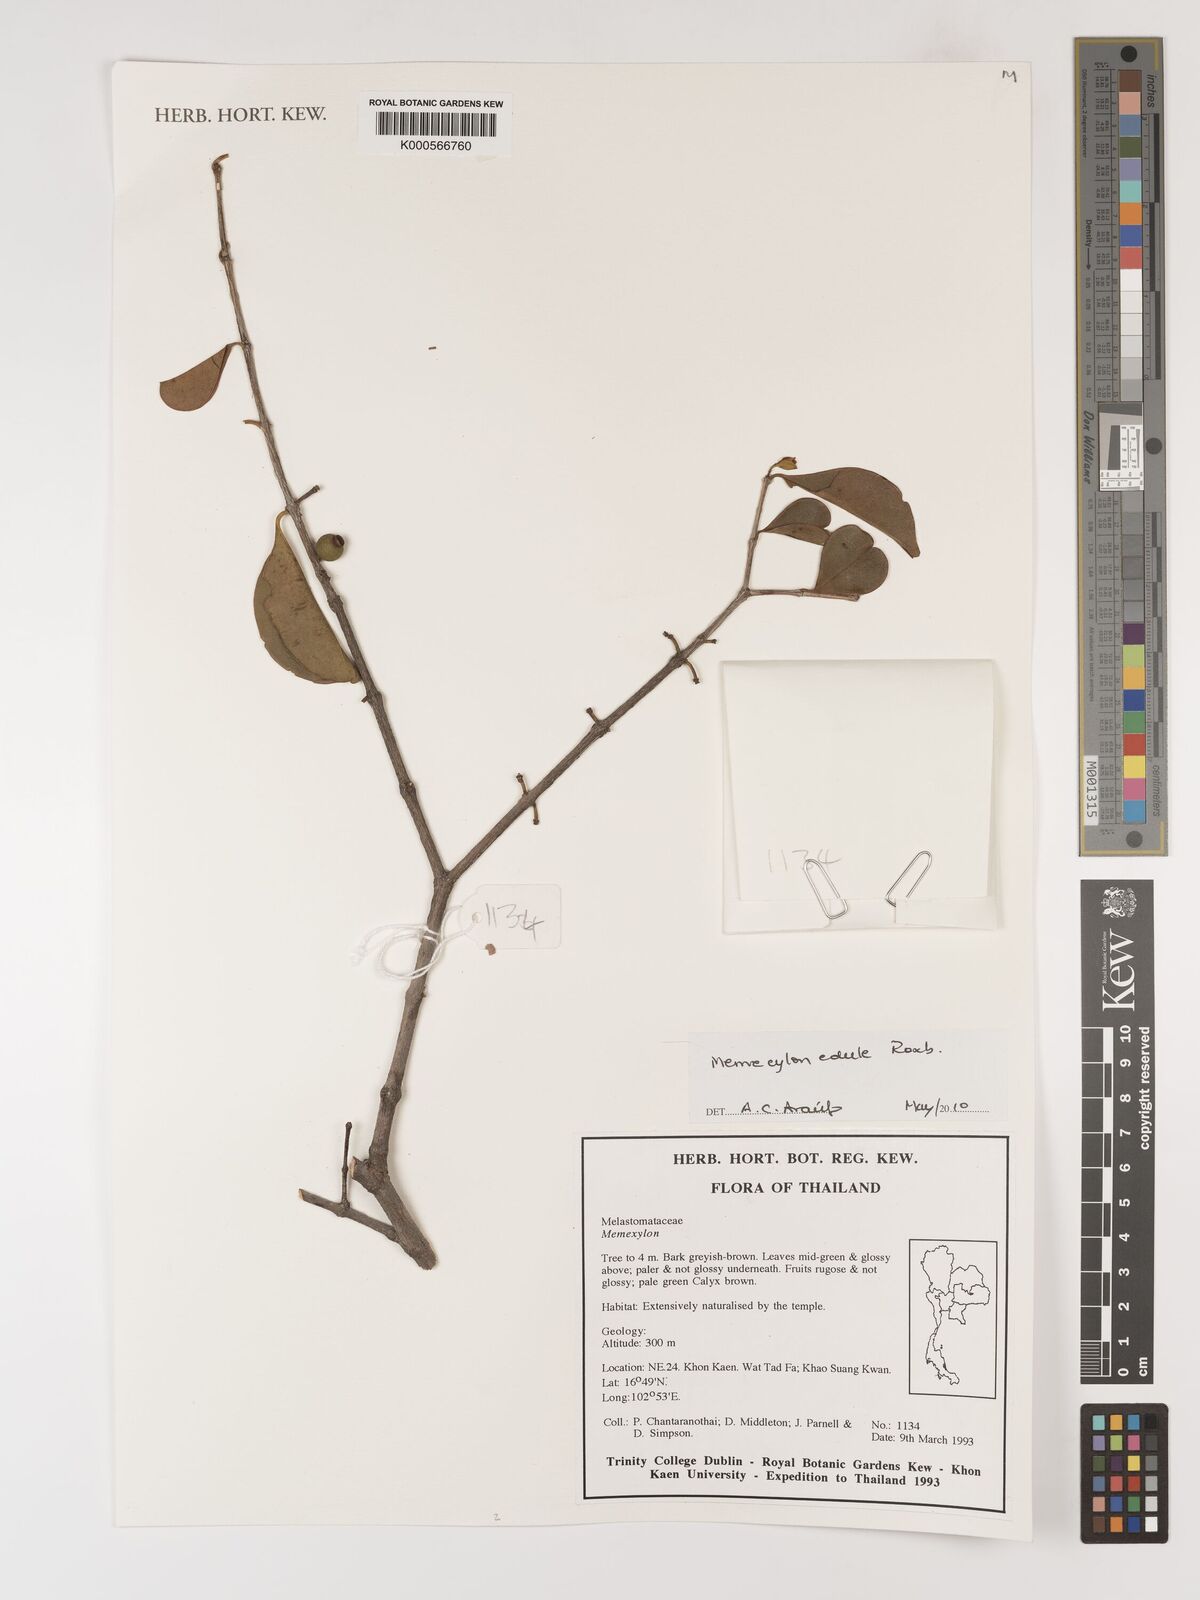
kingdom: Plantae
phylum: Tracheophyta
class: Magnoliopsida
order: Myrtales
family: Melastomataceae
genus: Memecylon
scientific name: Memecylon edule
